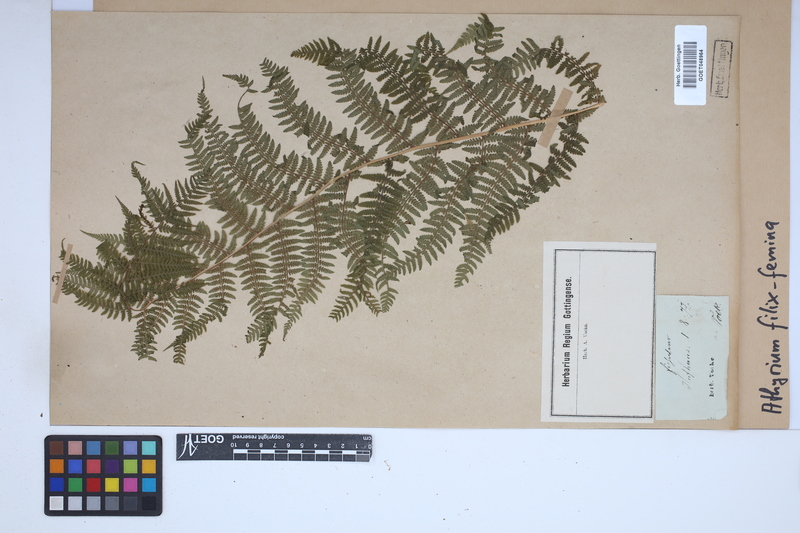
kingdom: Plantae
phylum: Tracheophyta
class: Polypodiopsida
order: Polypodiales
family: Athyriaceae
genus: Athyrium
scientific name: Athyrium filix-femina
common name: Lady fern
